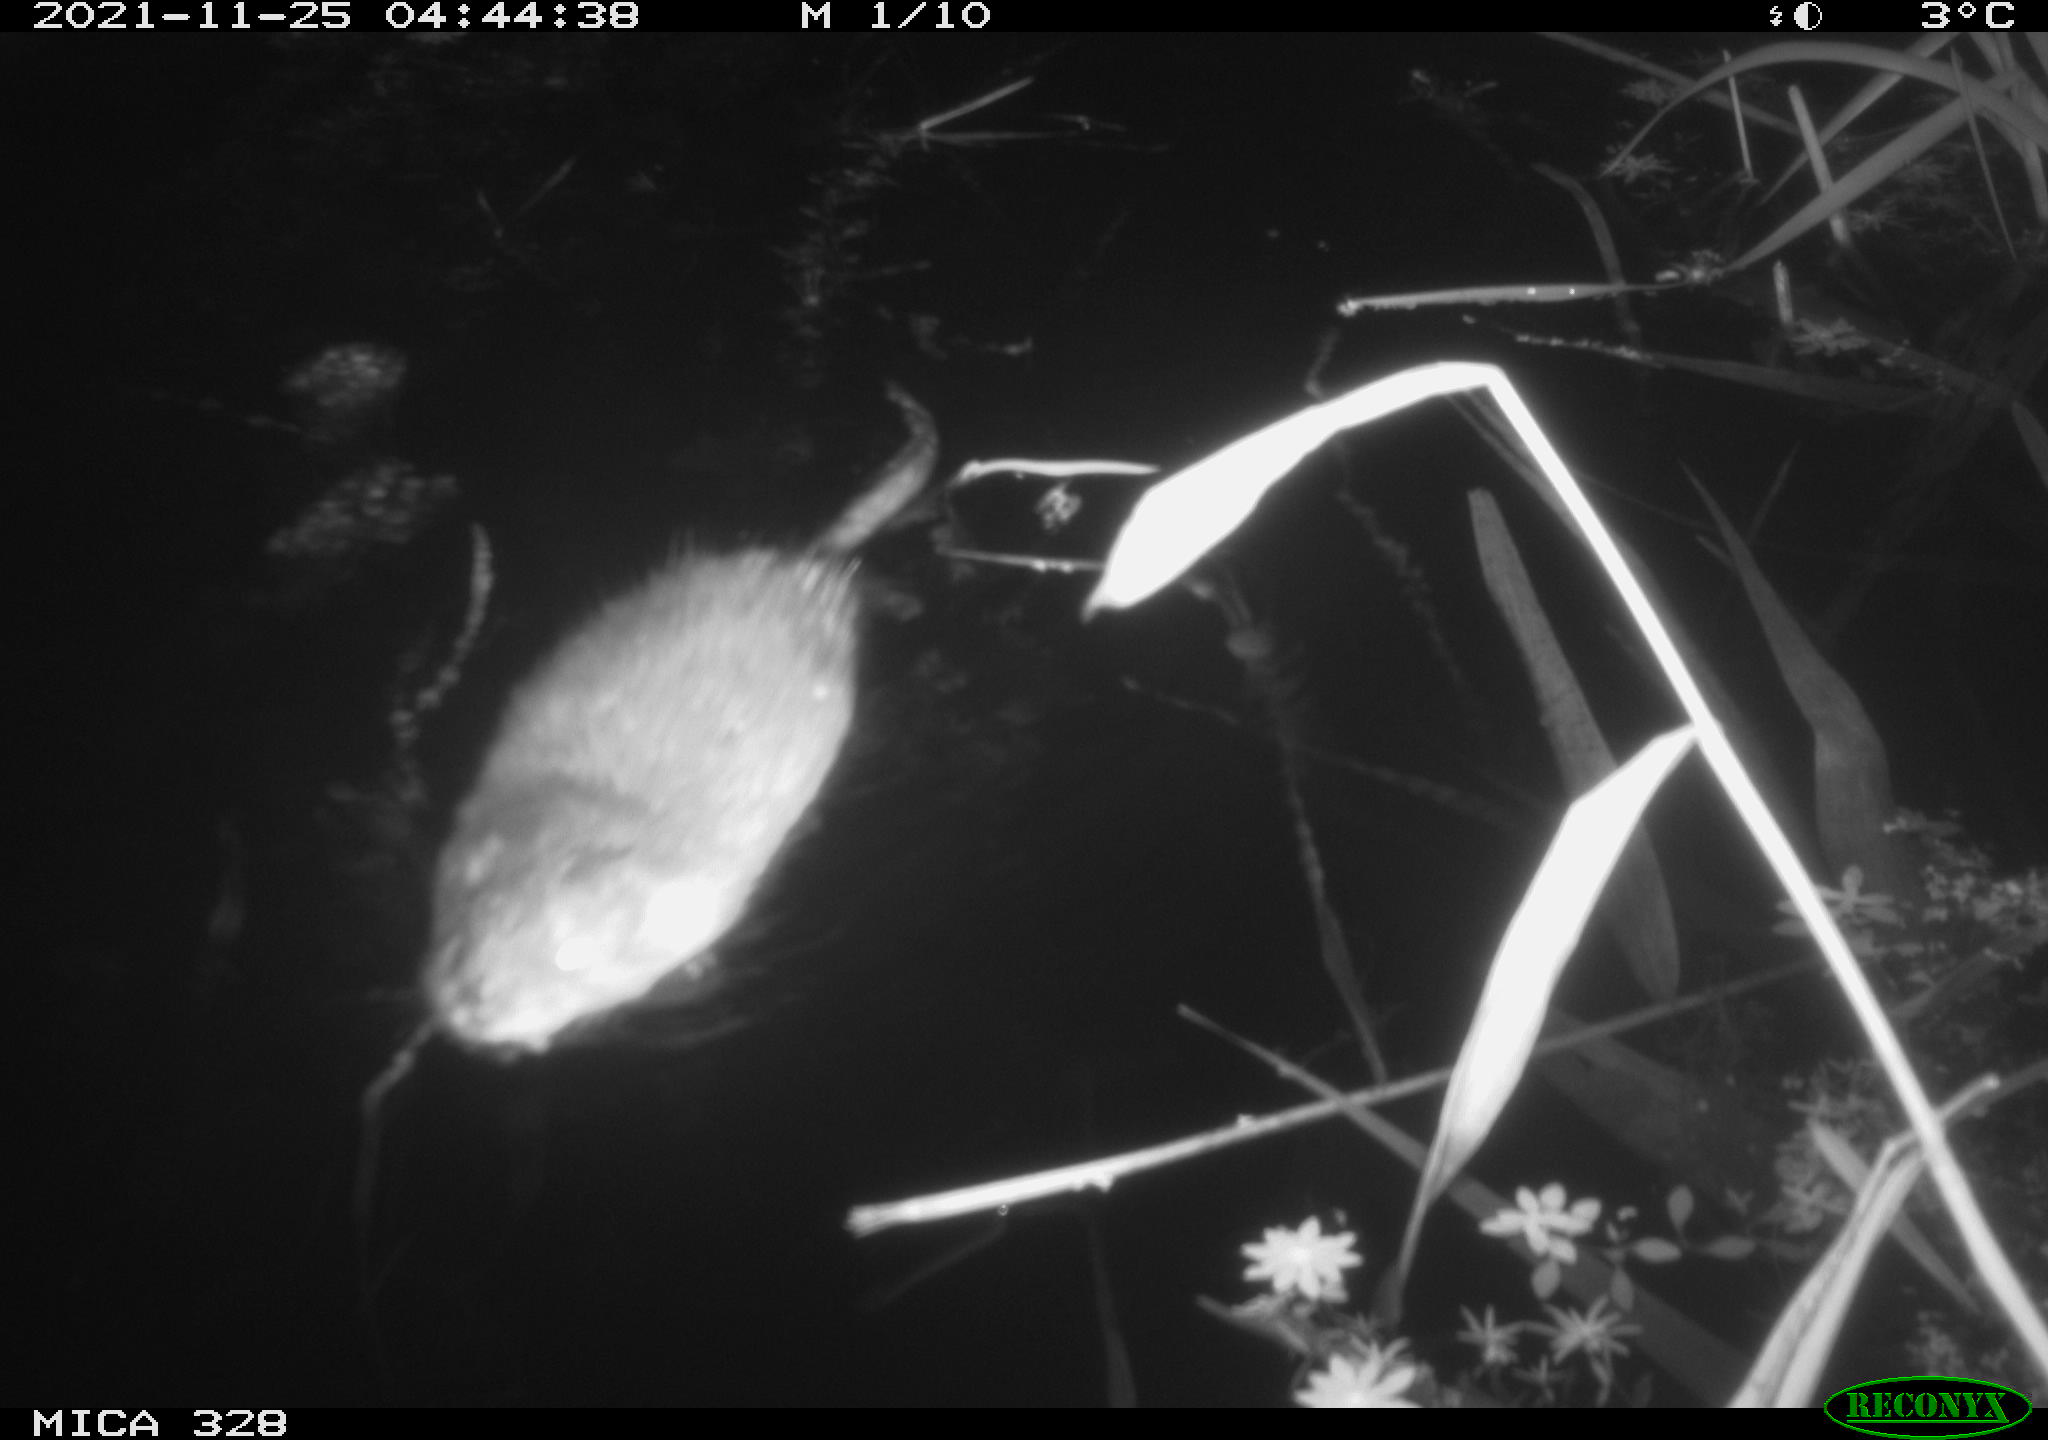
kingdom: Animalia
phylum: Chordata
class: Mammalia
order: Rodentia
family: Cricetidae
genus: Ondatra
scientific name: Ondatra zibethicus
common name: Muskrat
